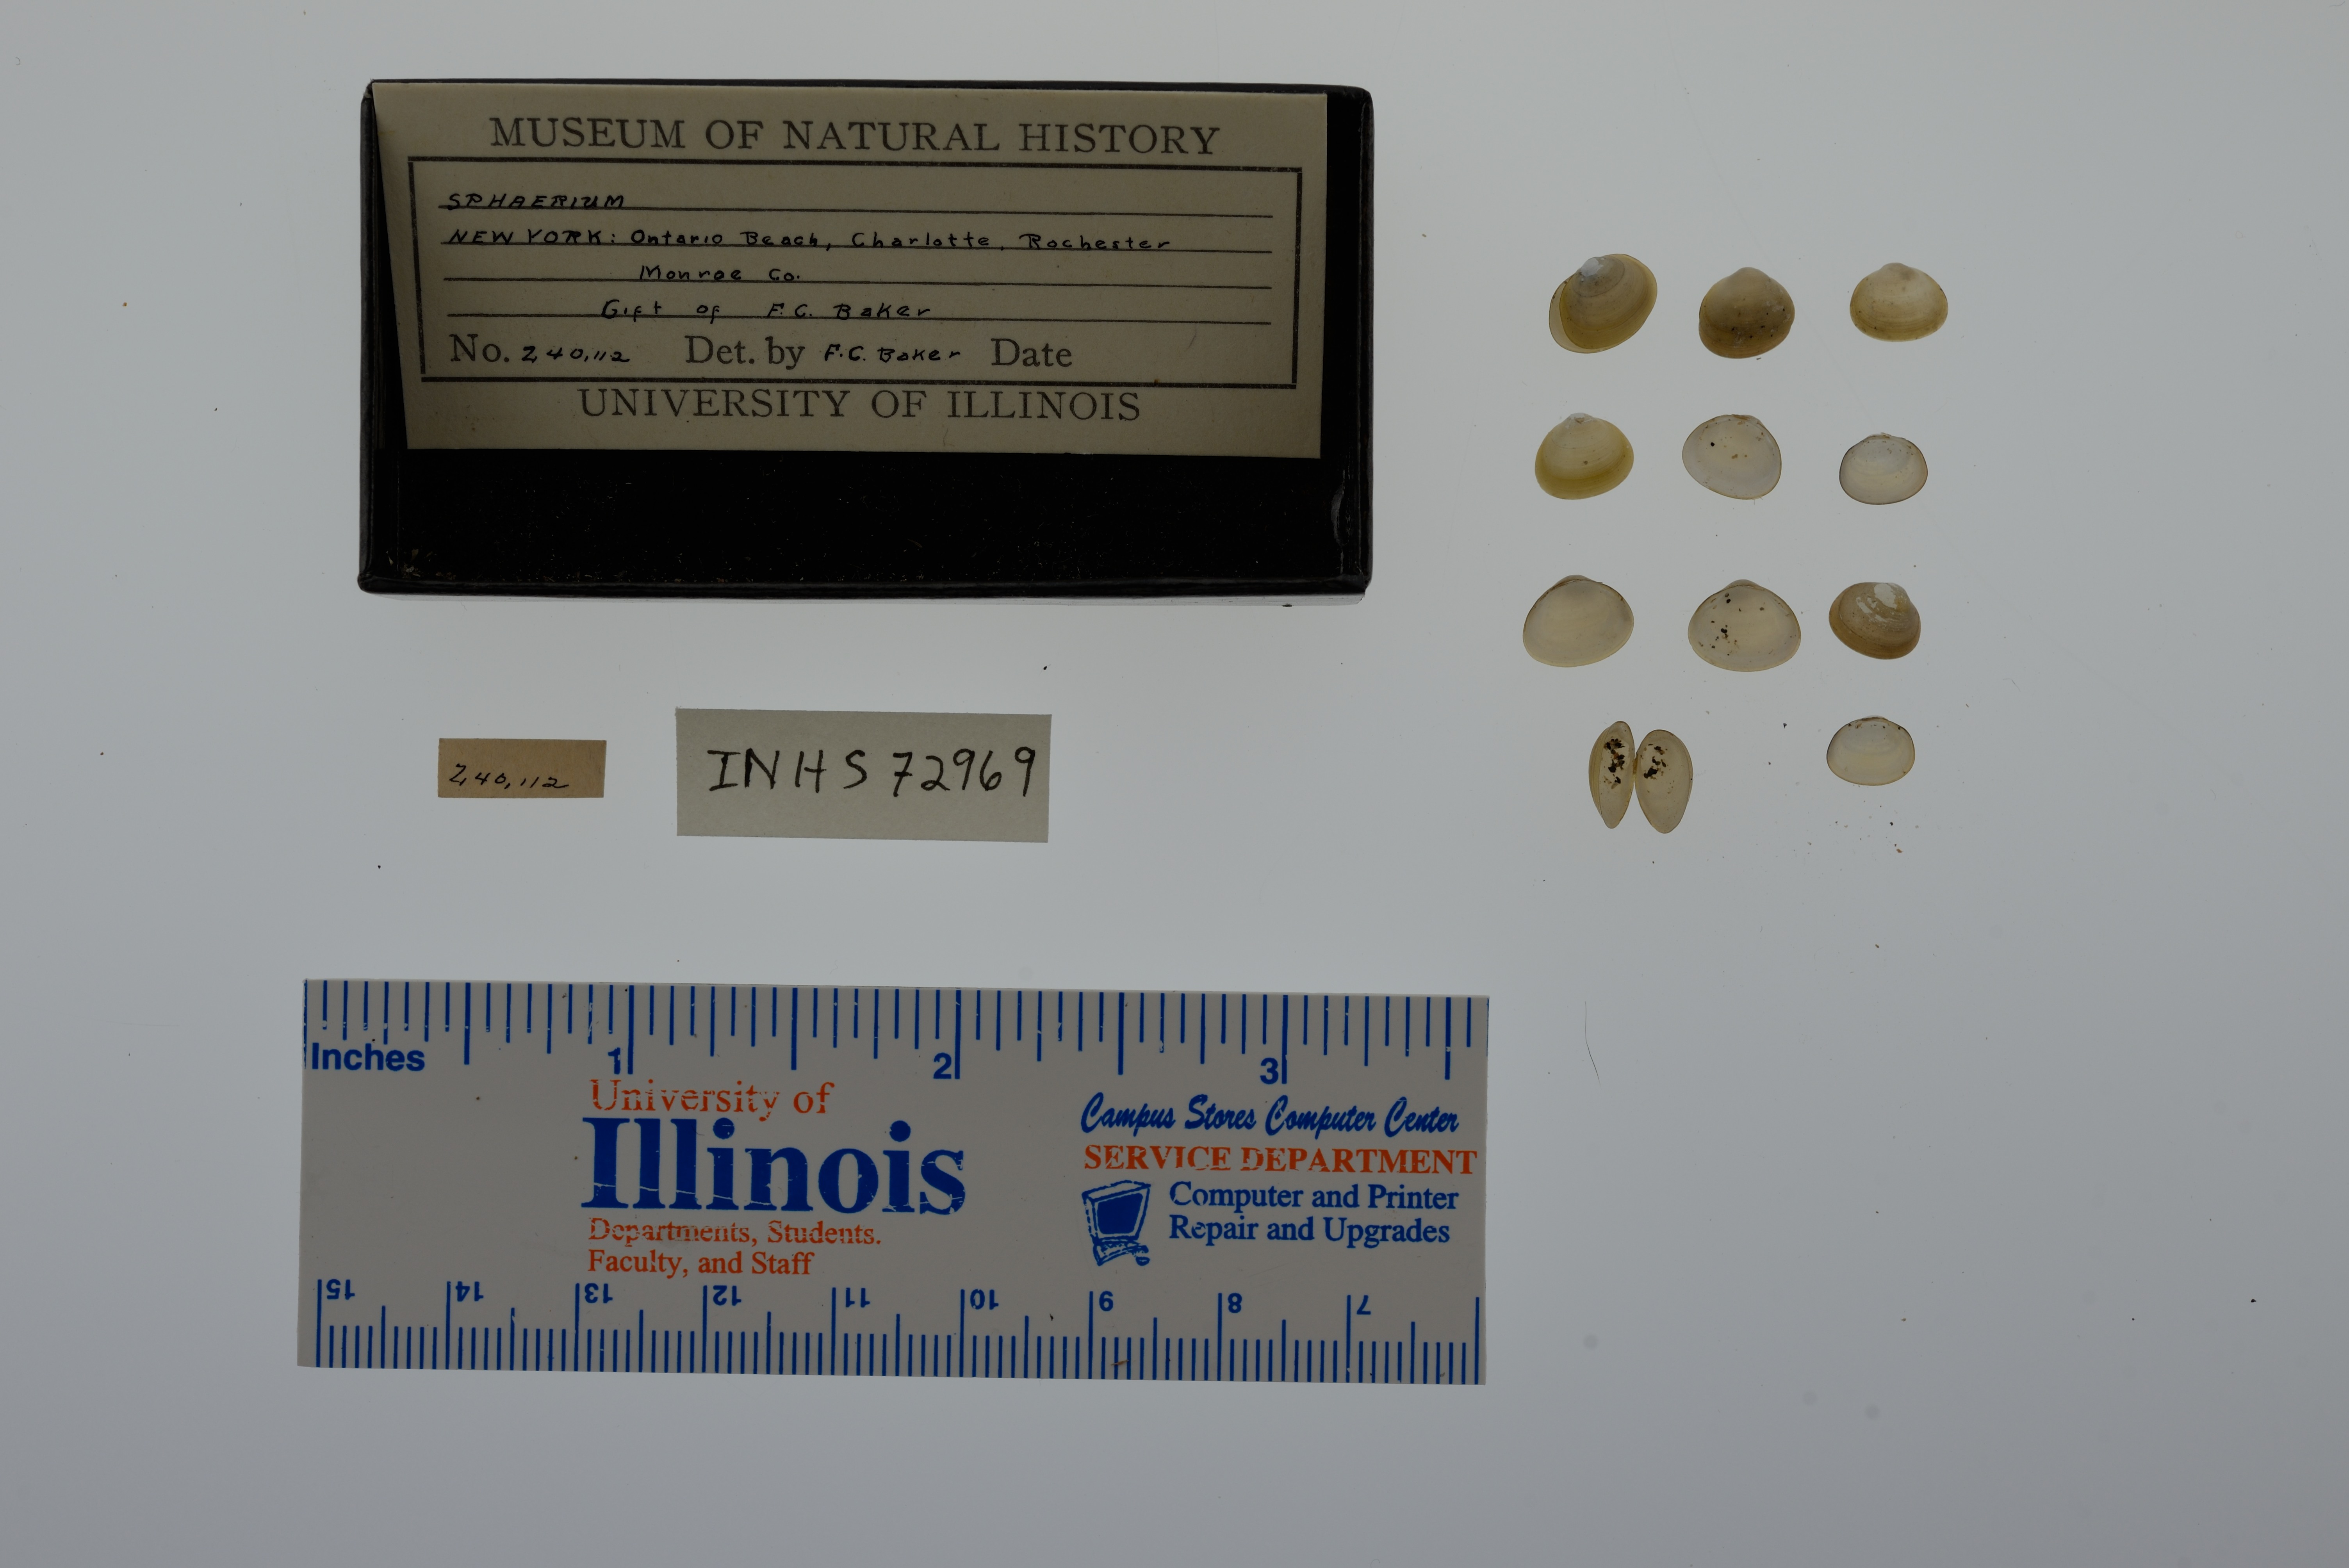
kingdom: Animalia
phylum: Mollusca
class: Bivalvia
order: Sphaeriida
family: Sphaeriidae
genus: Sphaerium
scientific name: Sphaerium
